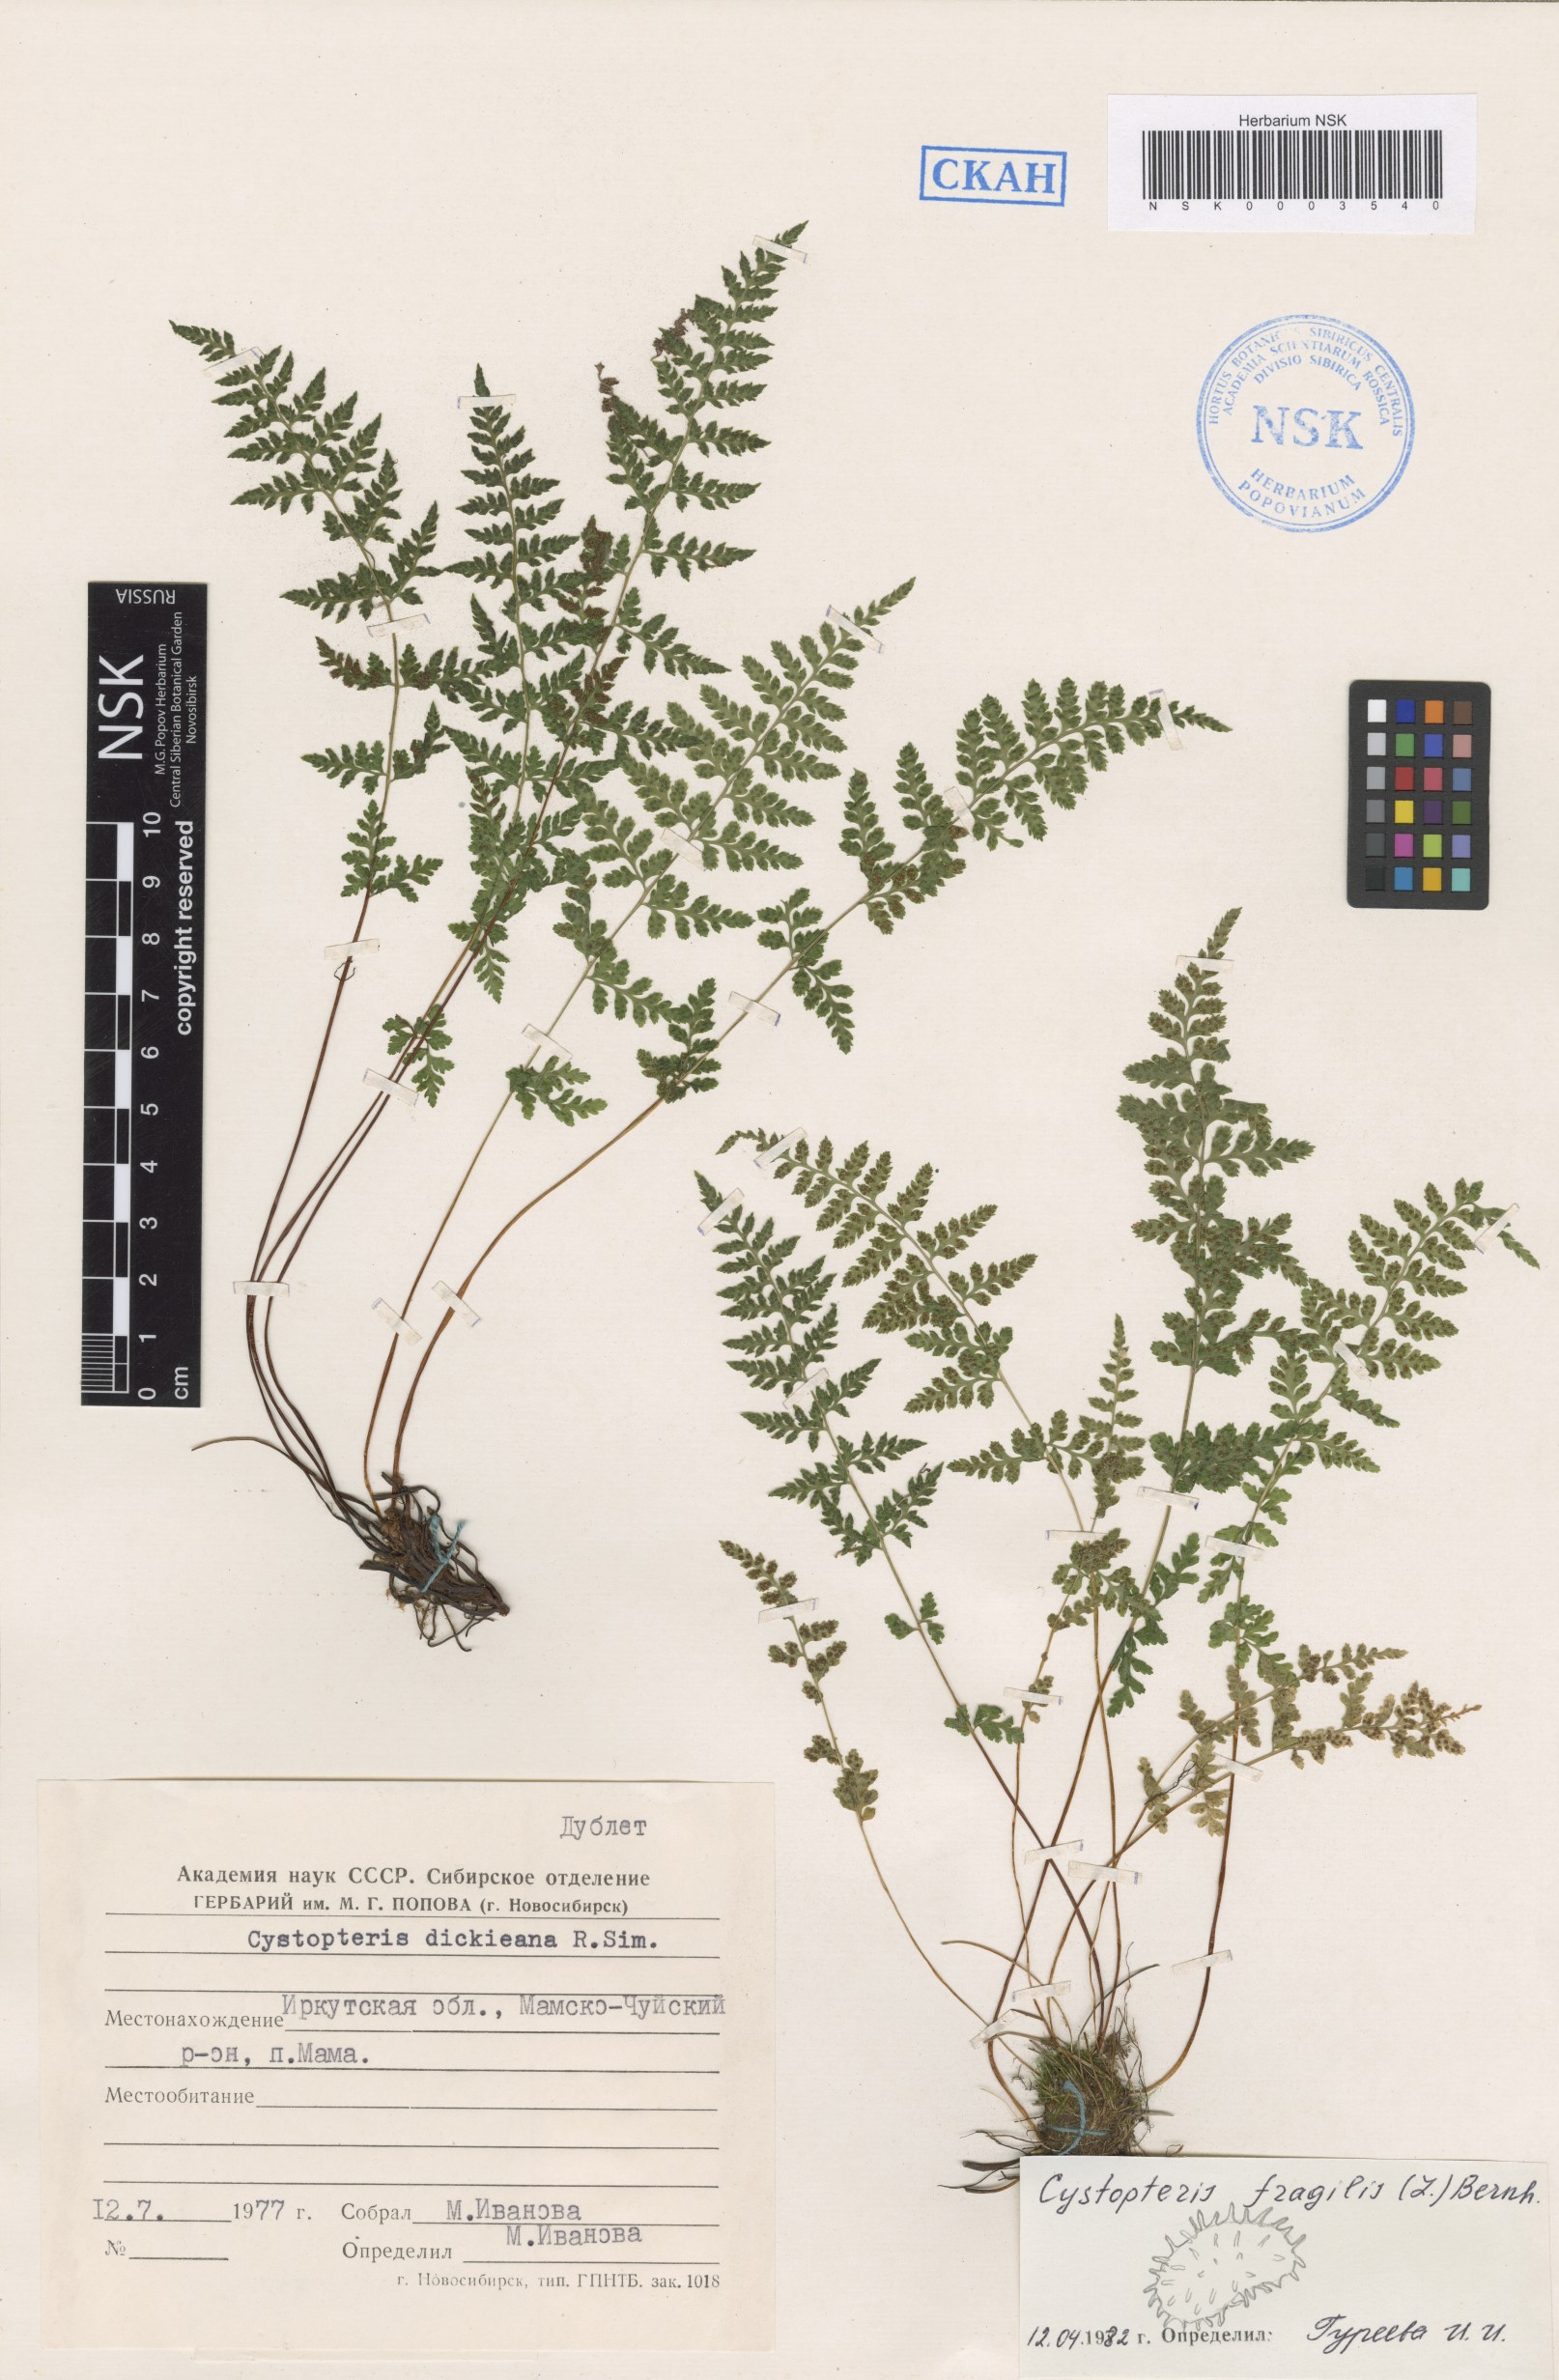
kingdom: Plantae
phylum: Tracheophyta
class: Polypodiopsida
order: Polypodiales
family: Cystopteridaceae
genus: Cystopteris
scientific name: Cystopteris fragilis
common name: Brittle bladder fern
